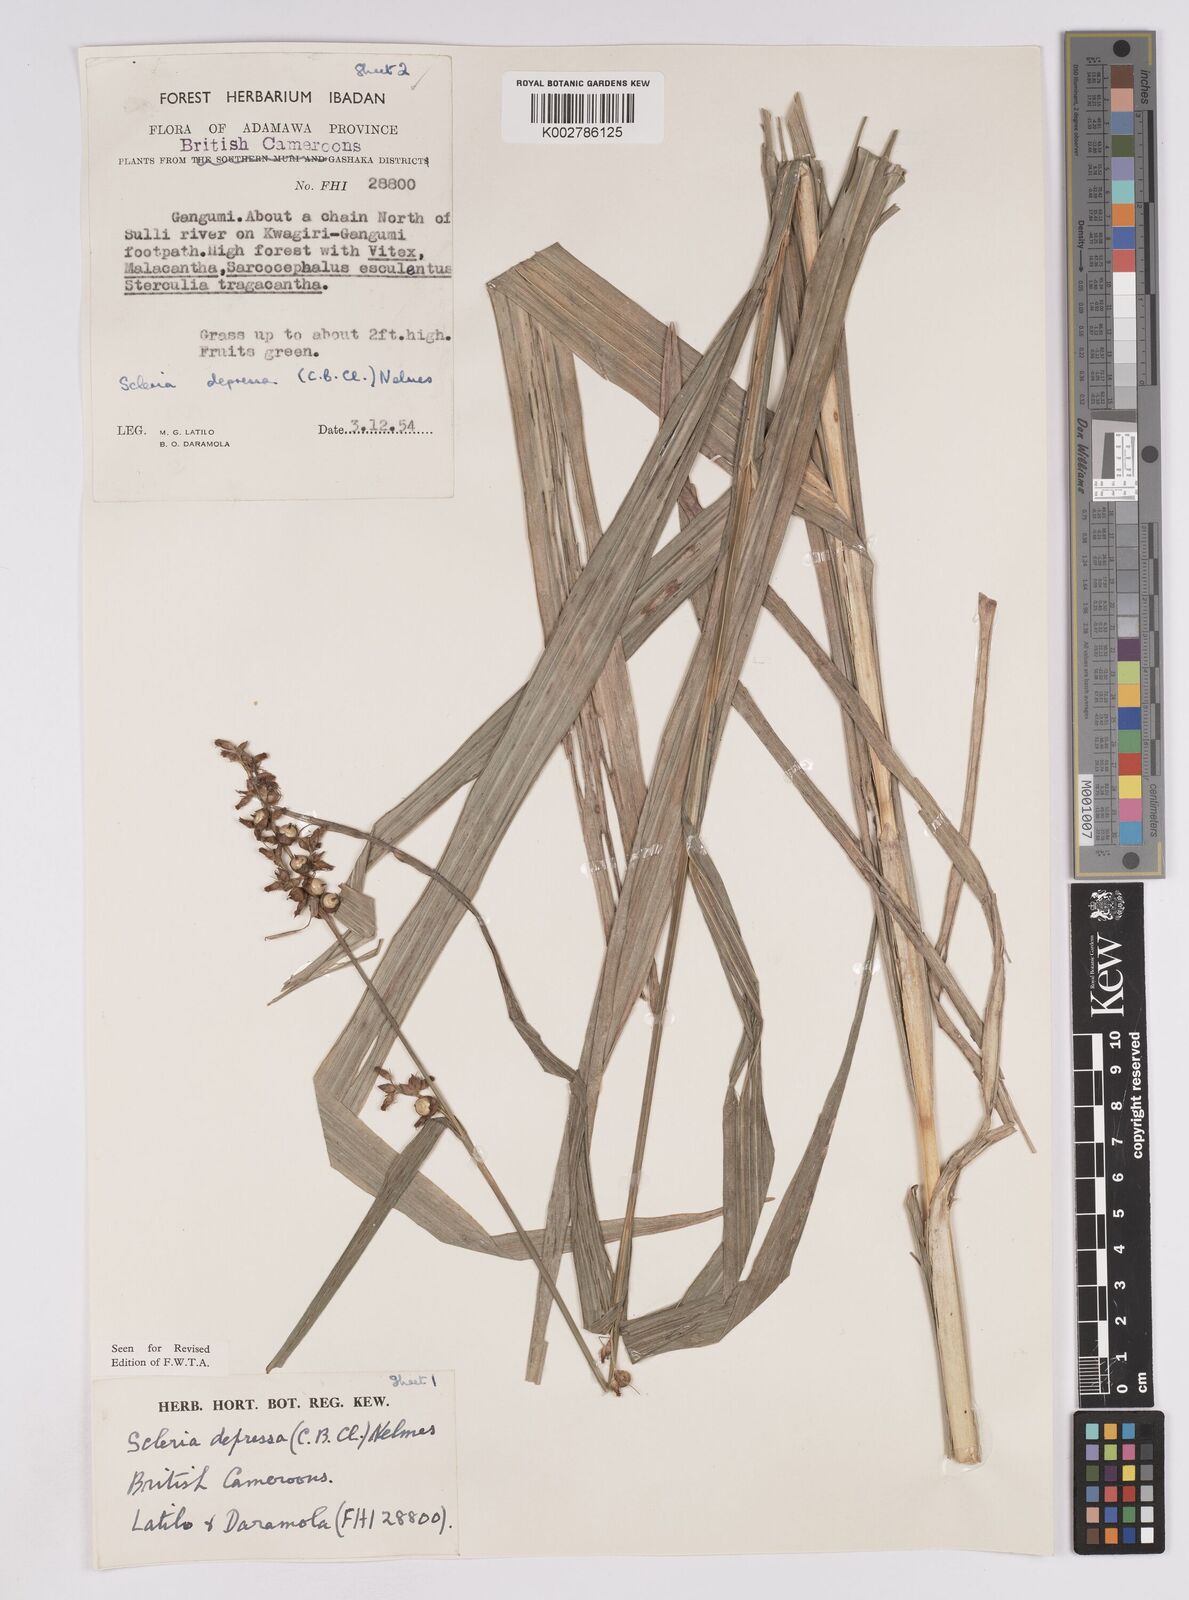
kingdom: Plantae
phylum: Tracheophyta
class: Liliopsida
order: Poales
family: Cyperaceae
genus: Scleria
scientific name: Scleria depressa
